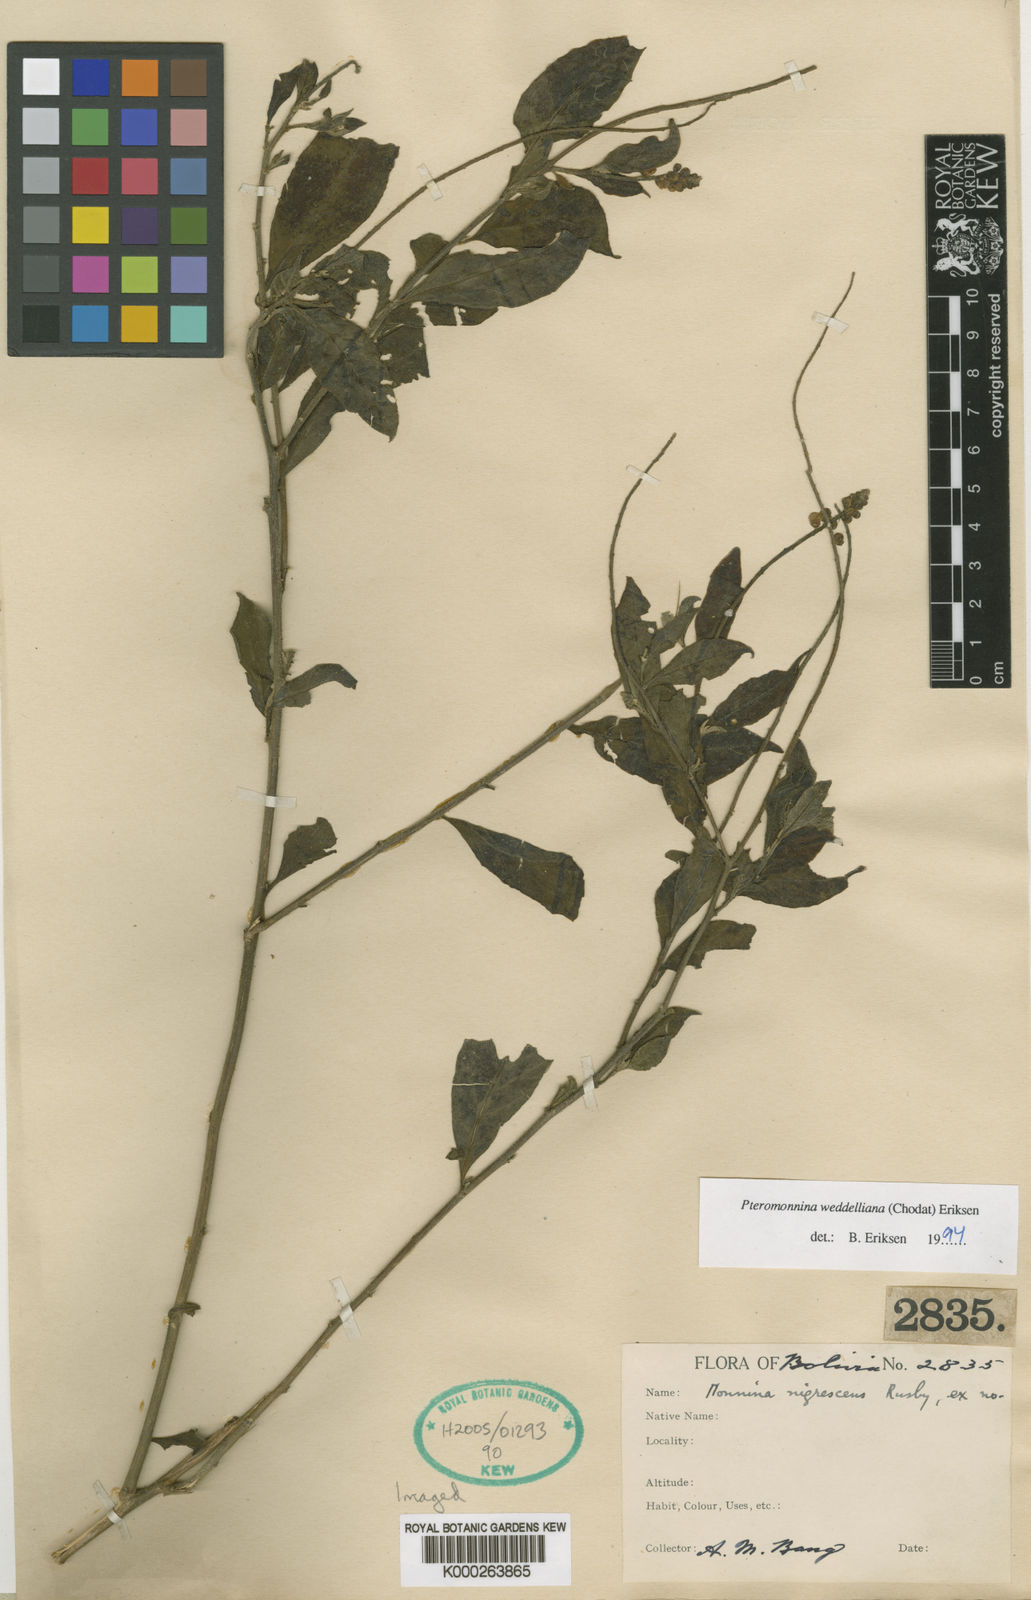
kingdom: Plantae
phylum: Tracheophyta
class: Magnoliopsida
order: Fabales
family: Polygalaceae
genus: Monnina
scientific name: Monnina
